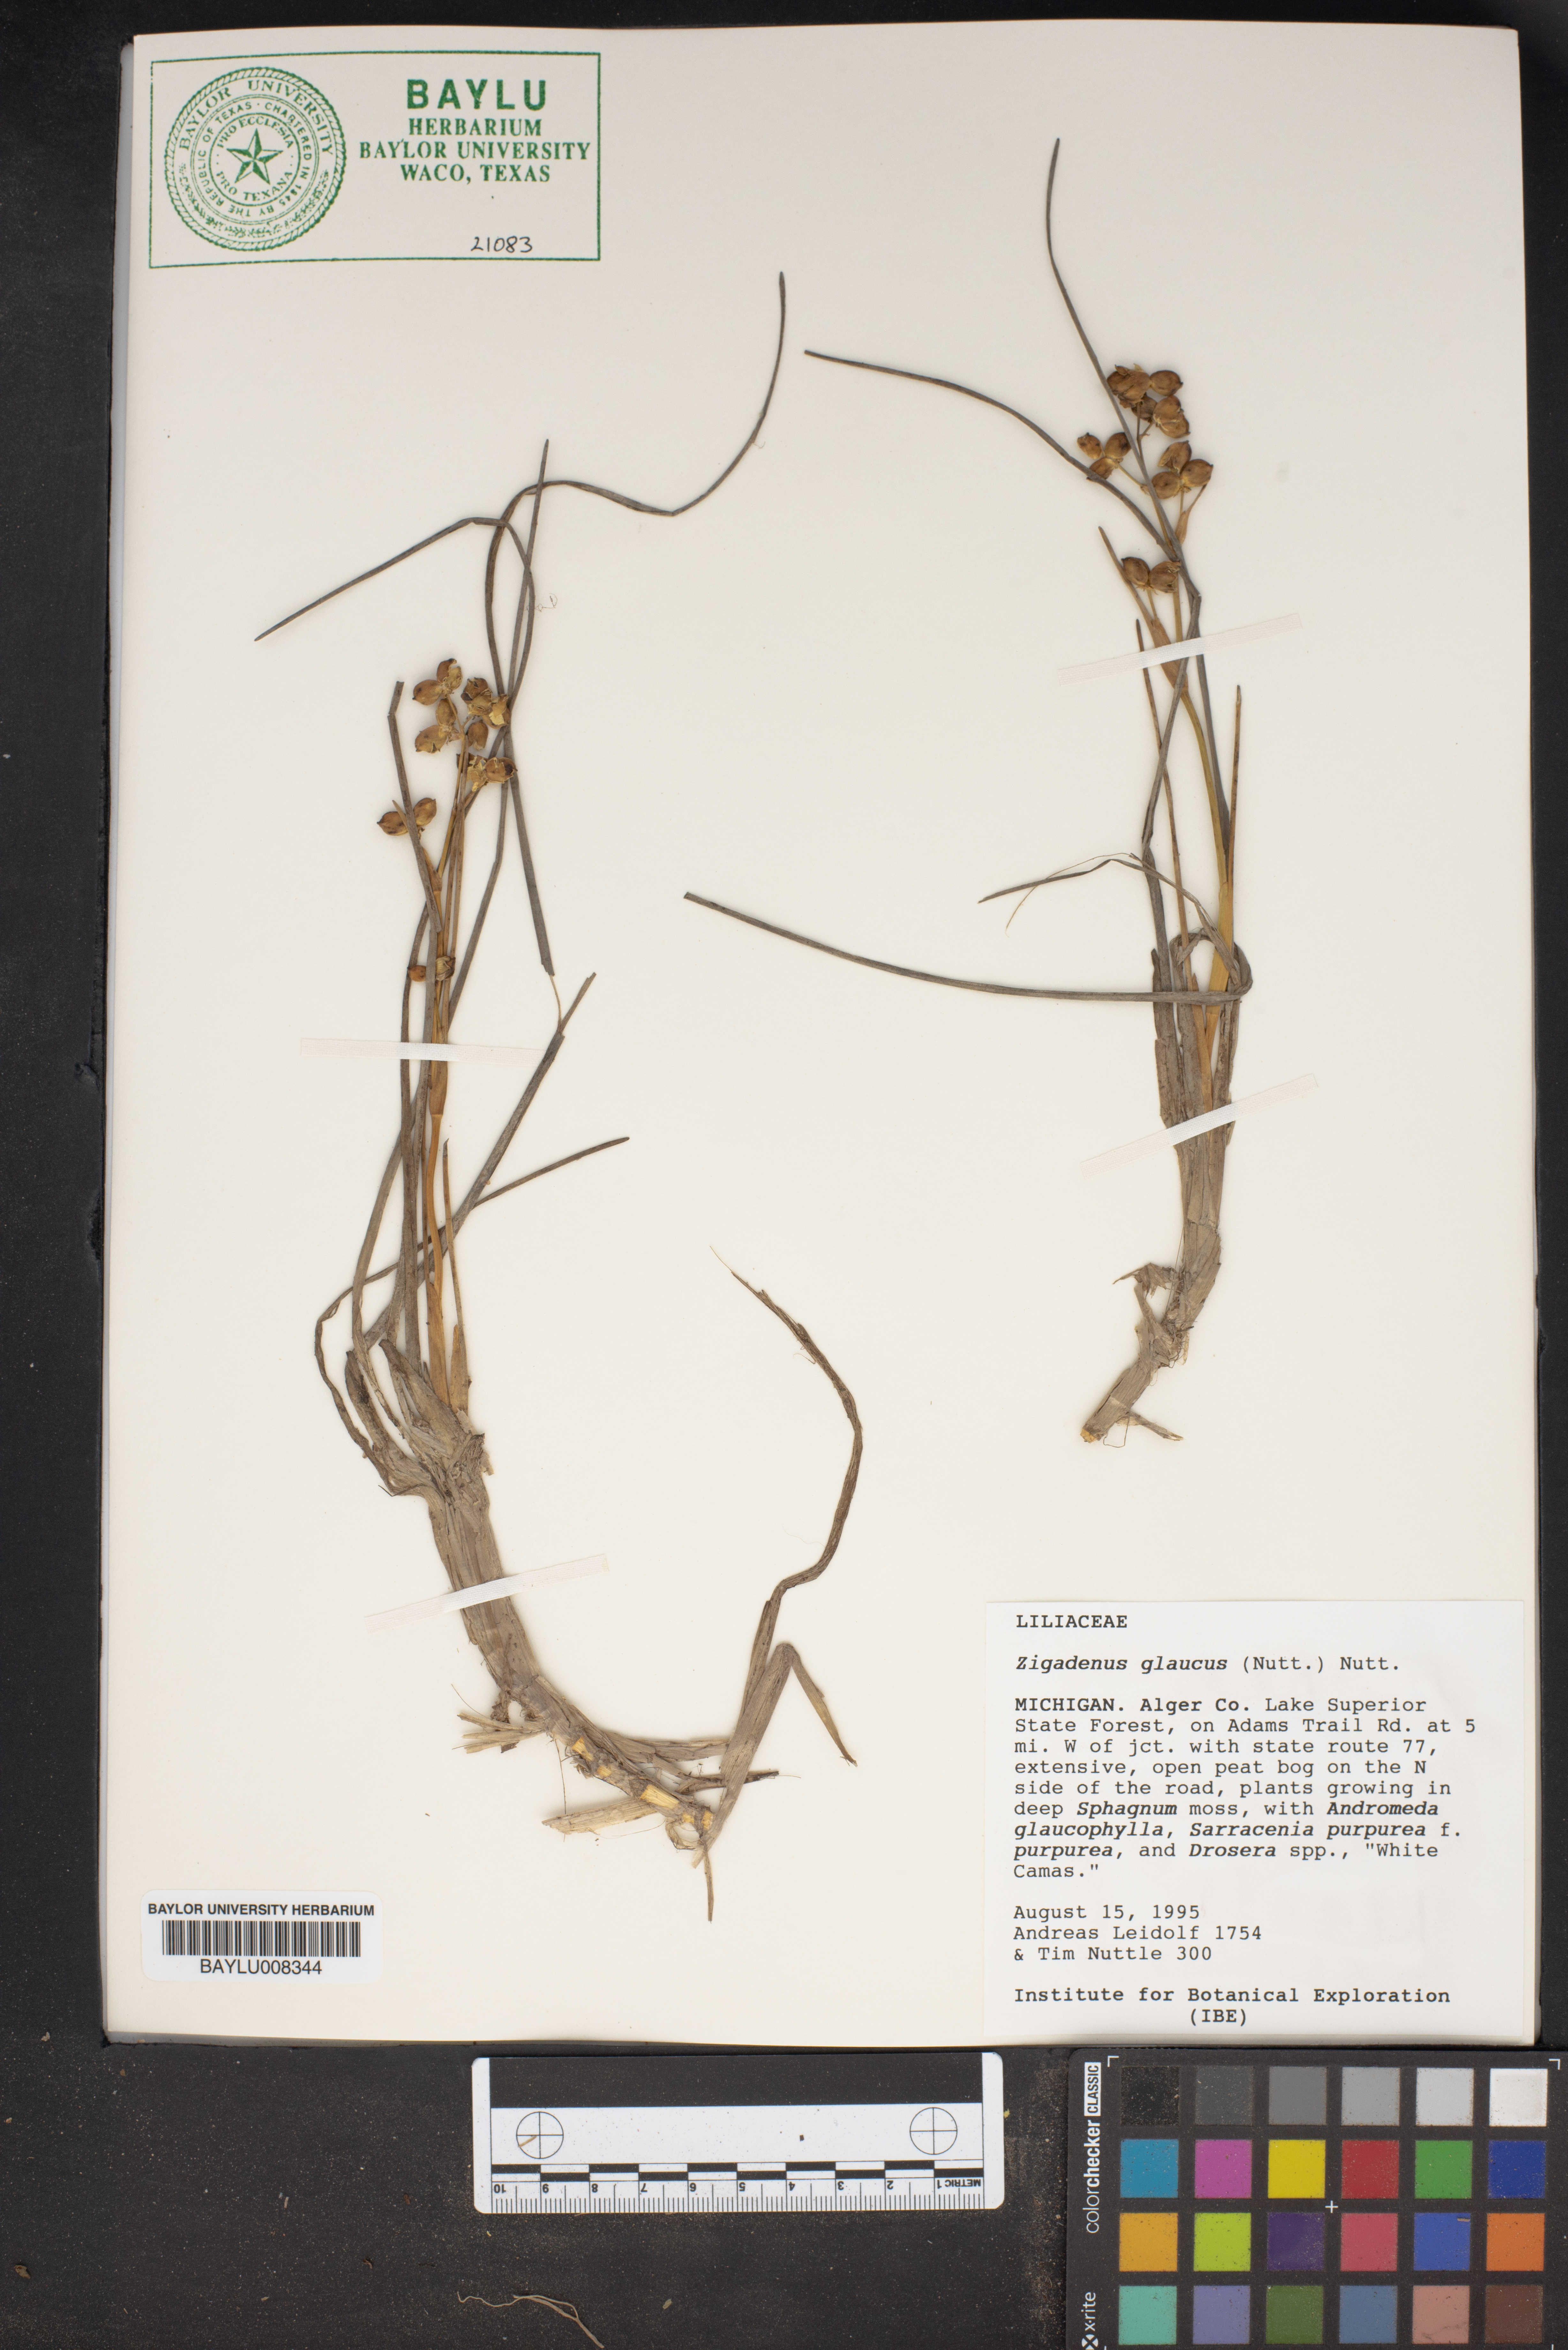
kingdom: Plantae
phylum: Tracheophyta
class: Liliopsida
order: Liliales
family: Melanthiaceae
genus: Anticlea
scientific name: Anticlea elegans
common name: Mountain death camas
